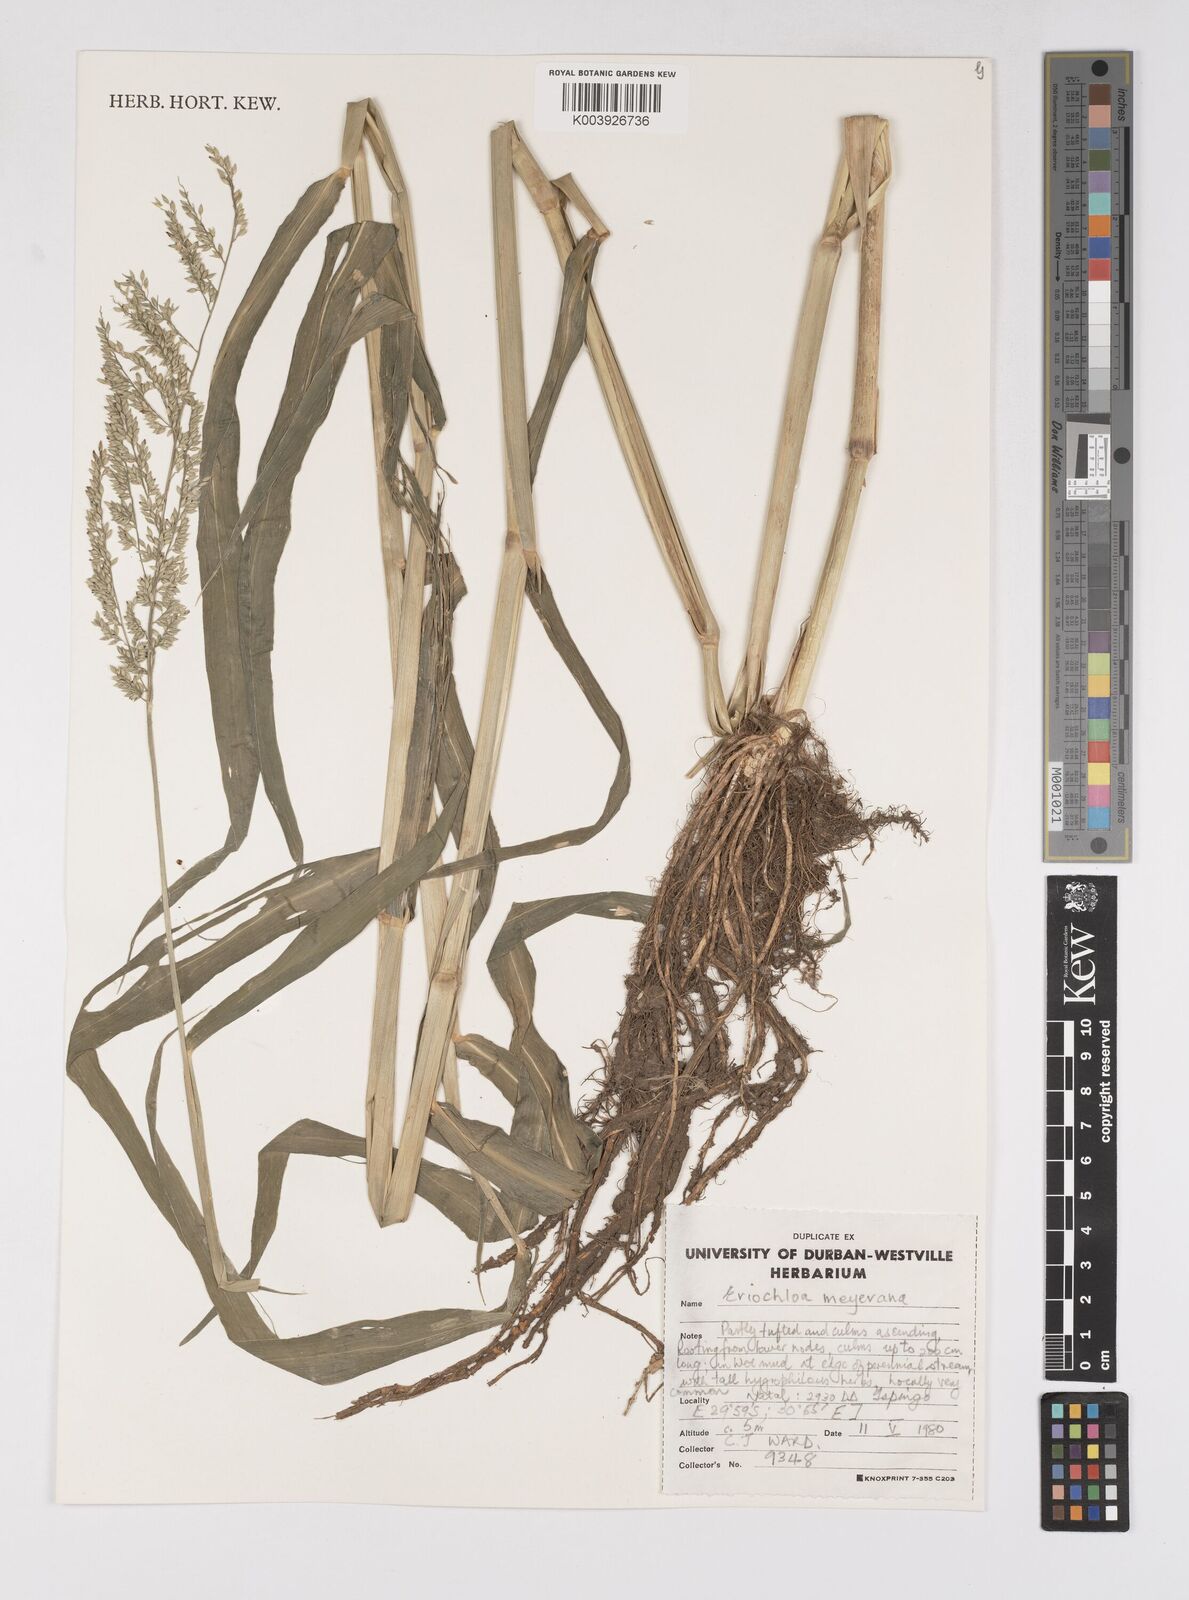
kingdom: Plantae
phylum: Tracheophyta
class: Liliopsida
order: Poales
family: Poaceae
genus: Eriochloa
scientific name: Eriochloa meyeriana
